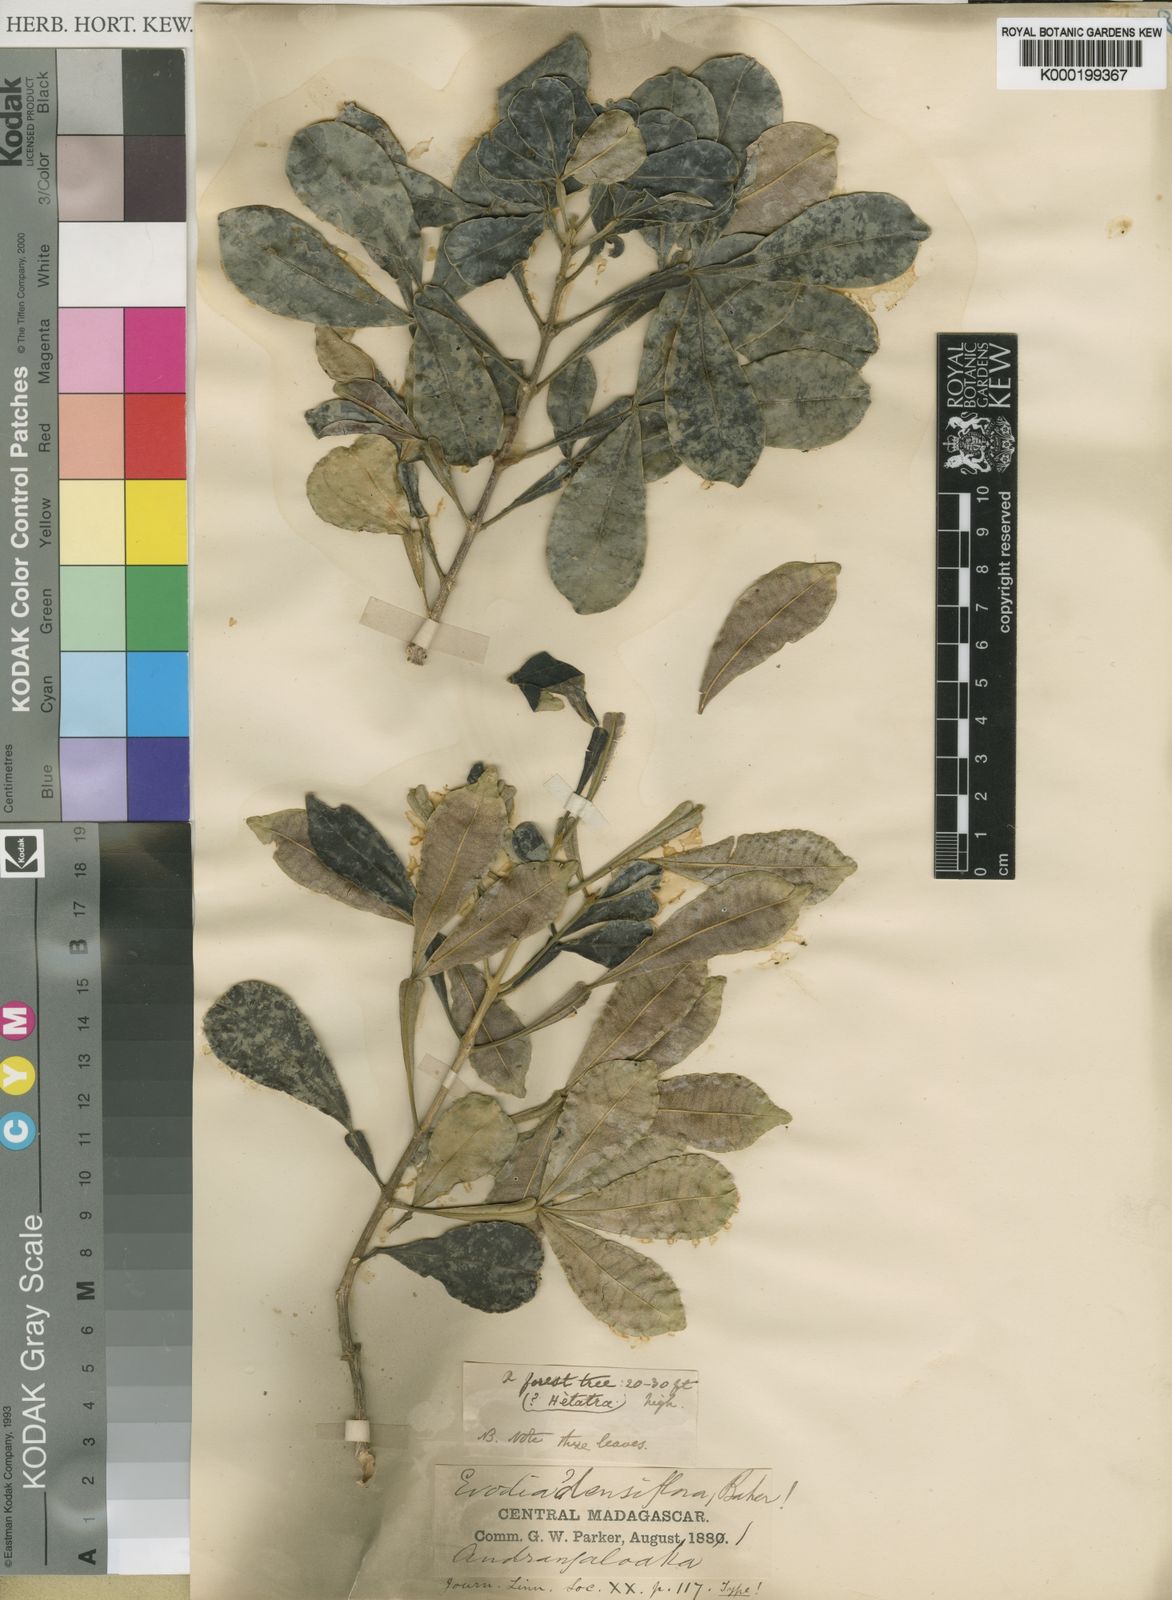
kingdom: Plantae
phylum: Tracheophyta
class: Magnoliopsida
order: Sapindales
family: Rutaceae
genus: Melicope
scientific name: Melicope bakeri
